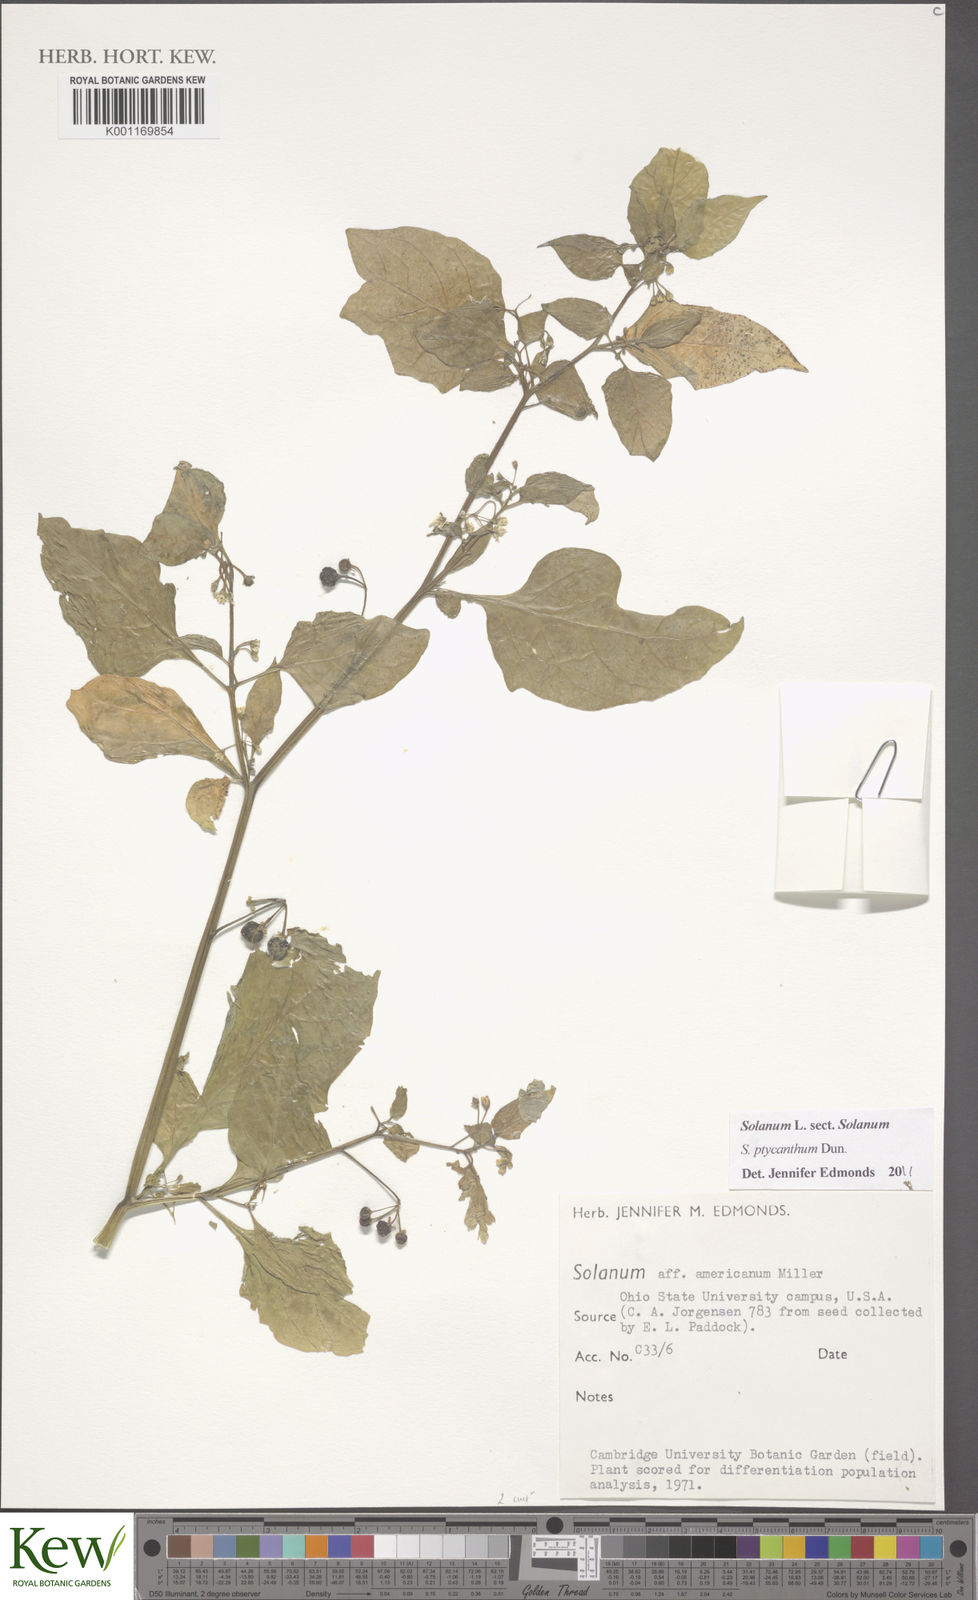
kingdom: Plantae
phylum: Tracheophyta
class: Magnoliopsida
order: Solanales
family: Solanaceae
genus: Solanum
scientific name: Solanum americanum
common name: American black nightshade
